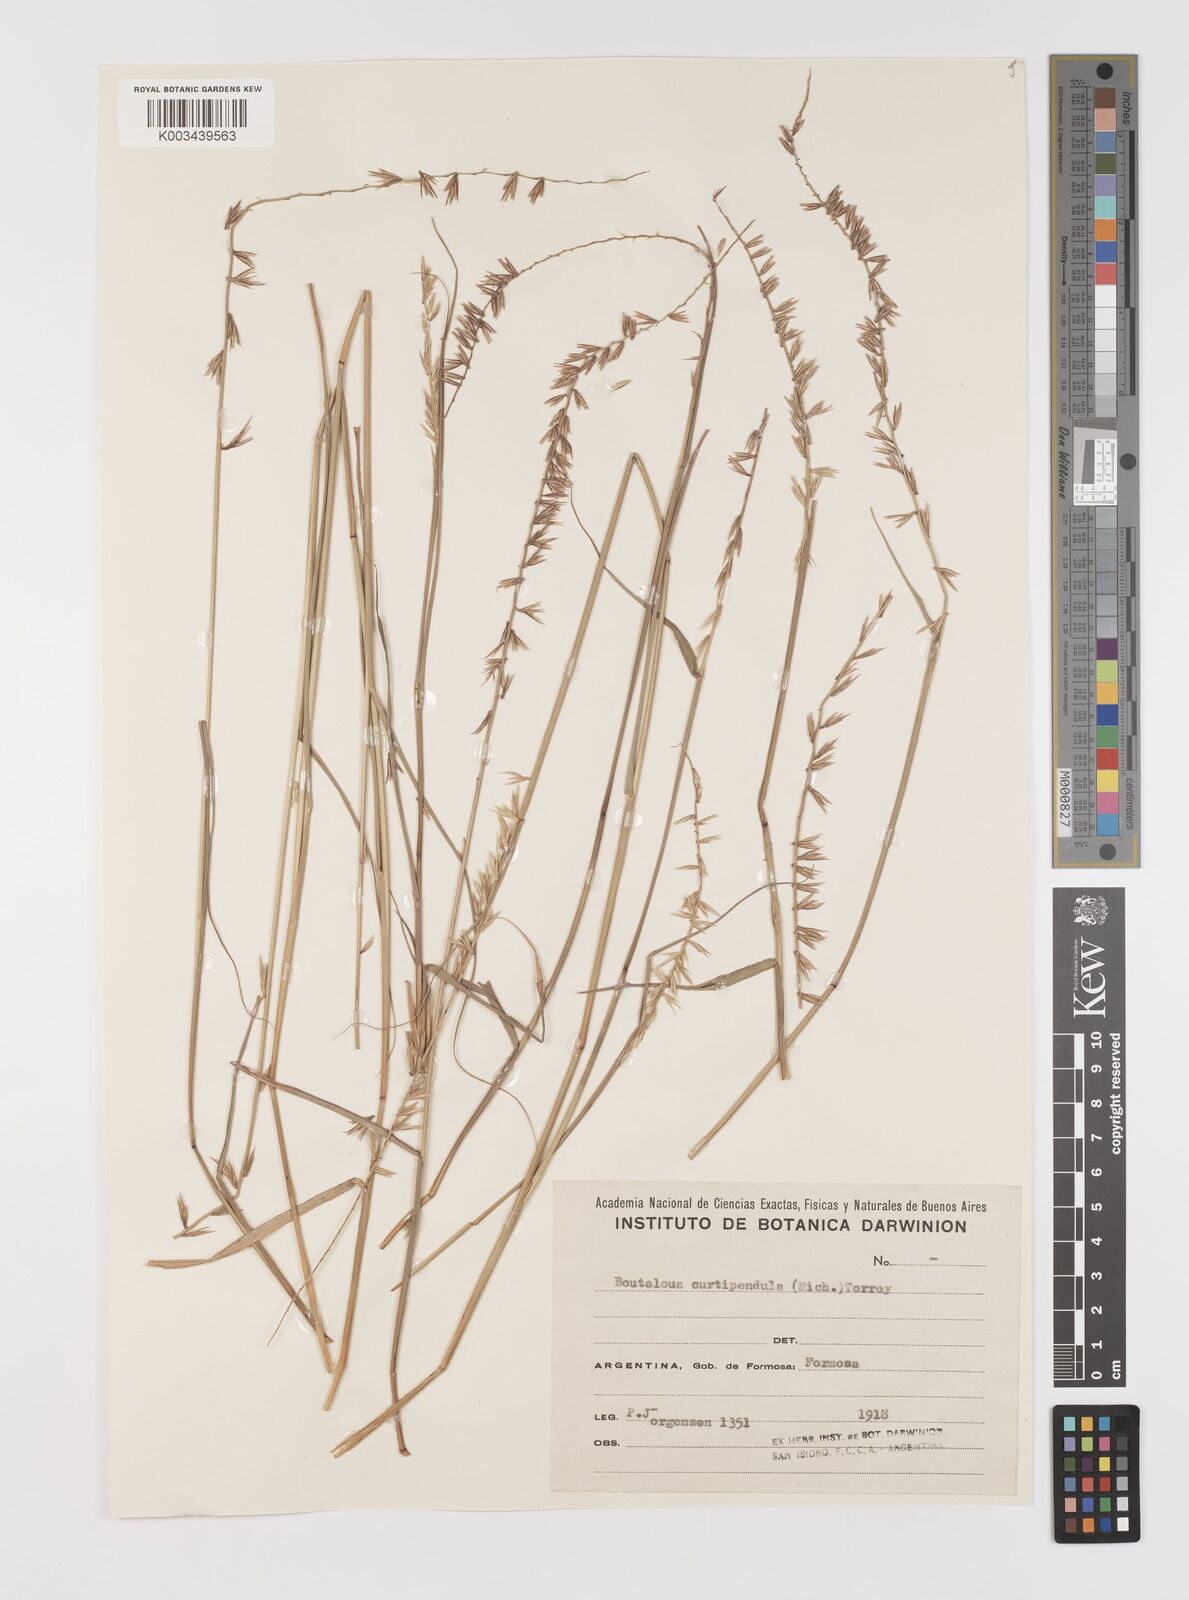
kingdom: Plantae
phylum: Tracheophyta
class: Liliopsida
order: Poales
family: Poaceae
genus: Bouteloua
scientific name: Bouteloua curtipendula
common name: Side-oats grama
